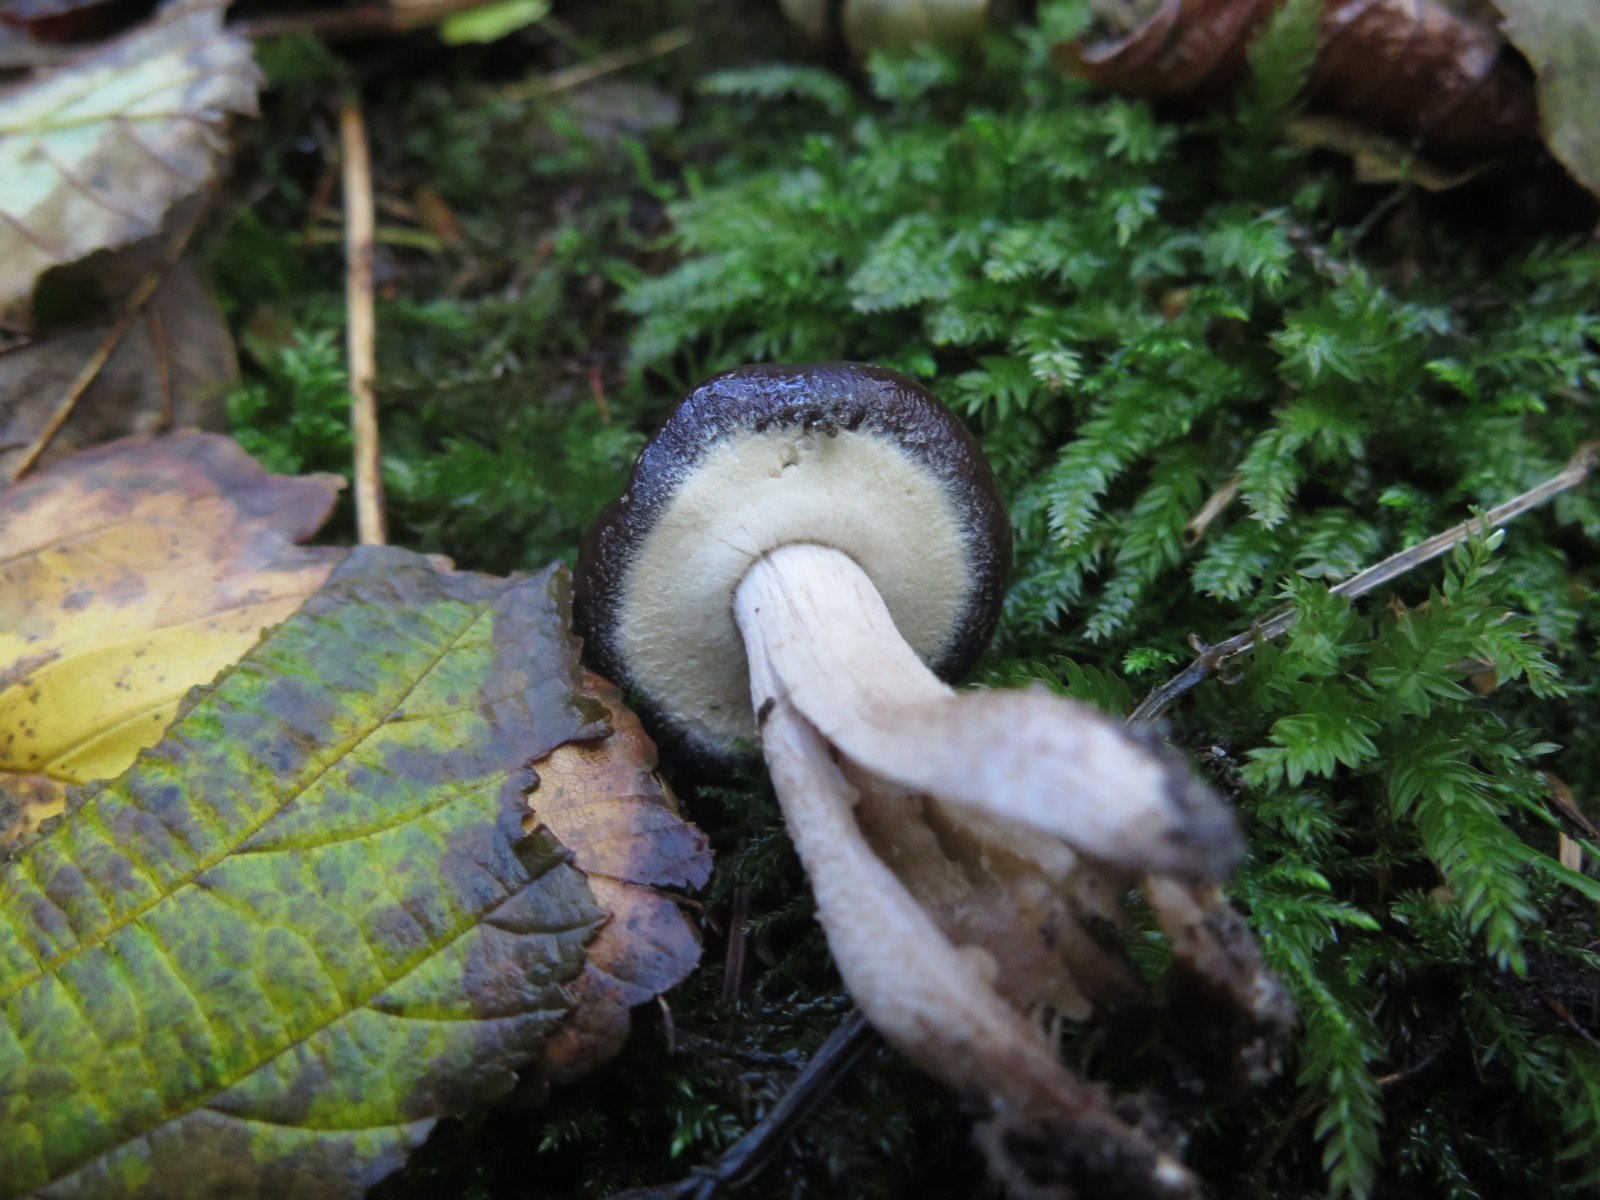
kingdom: Fungi
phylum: Basidiomycota
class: Agaricomycetes
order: Agaricales
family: Tubariaceae
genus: Cyclocybe
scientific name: Cyclocybe erebia
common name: mørk agerhat
